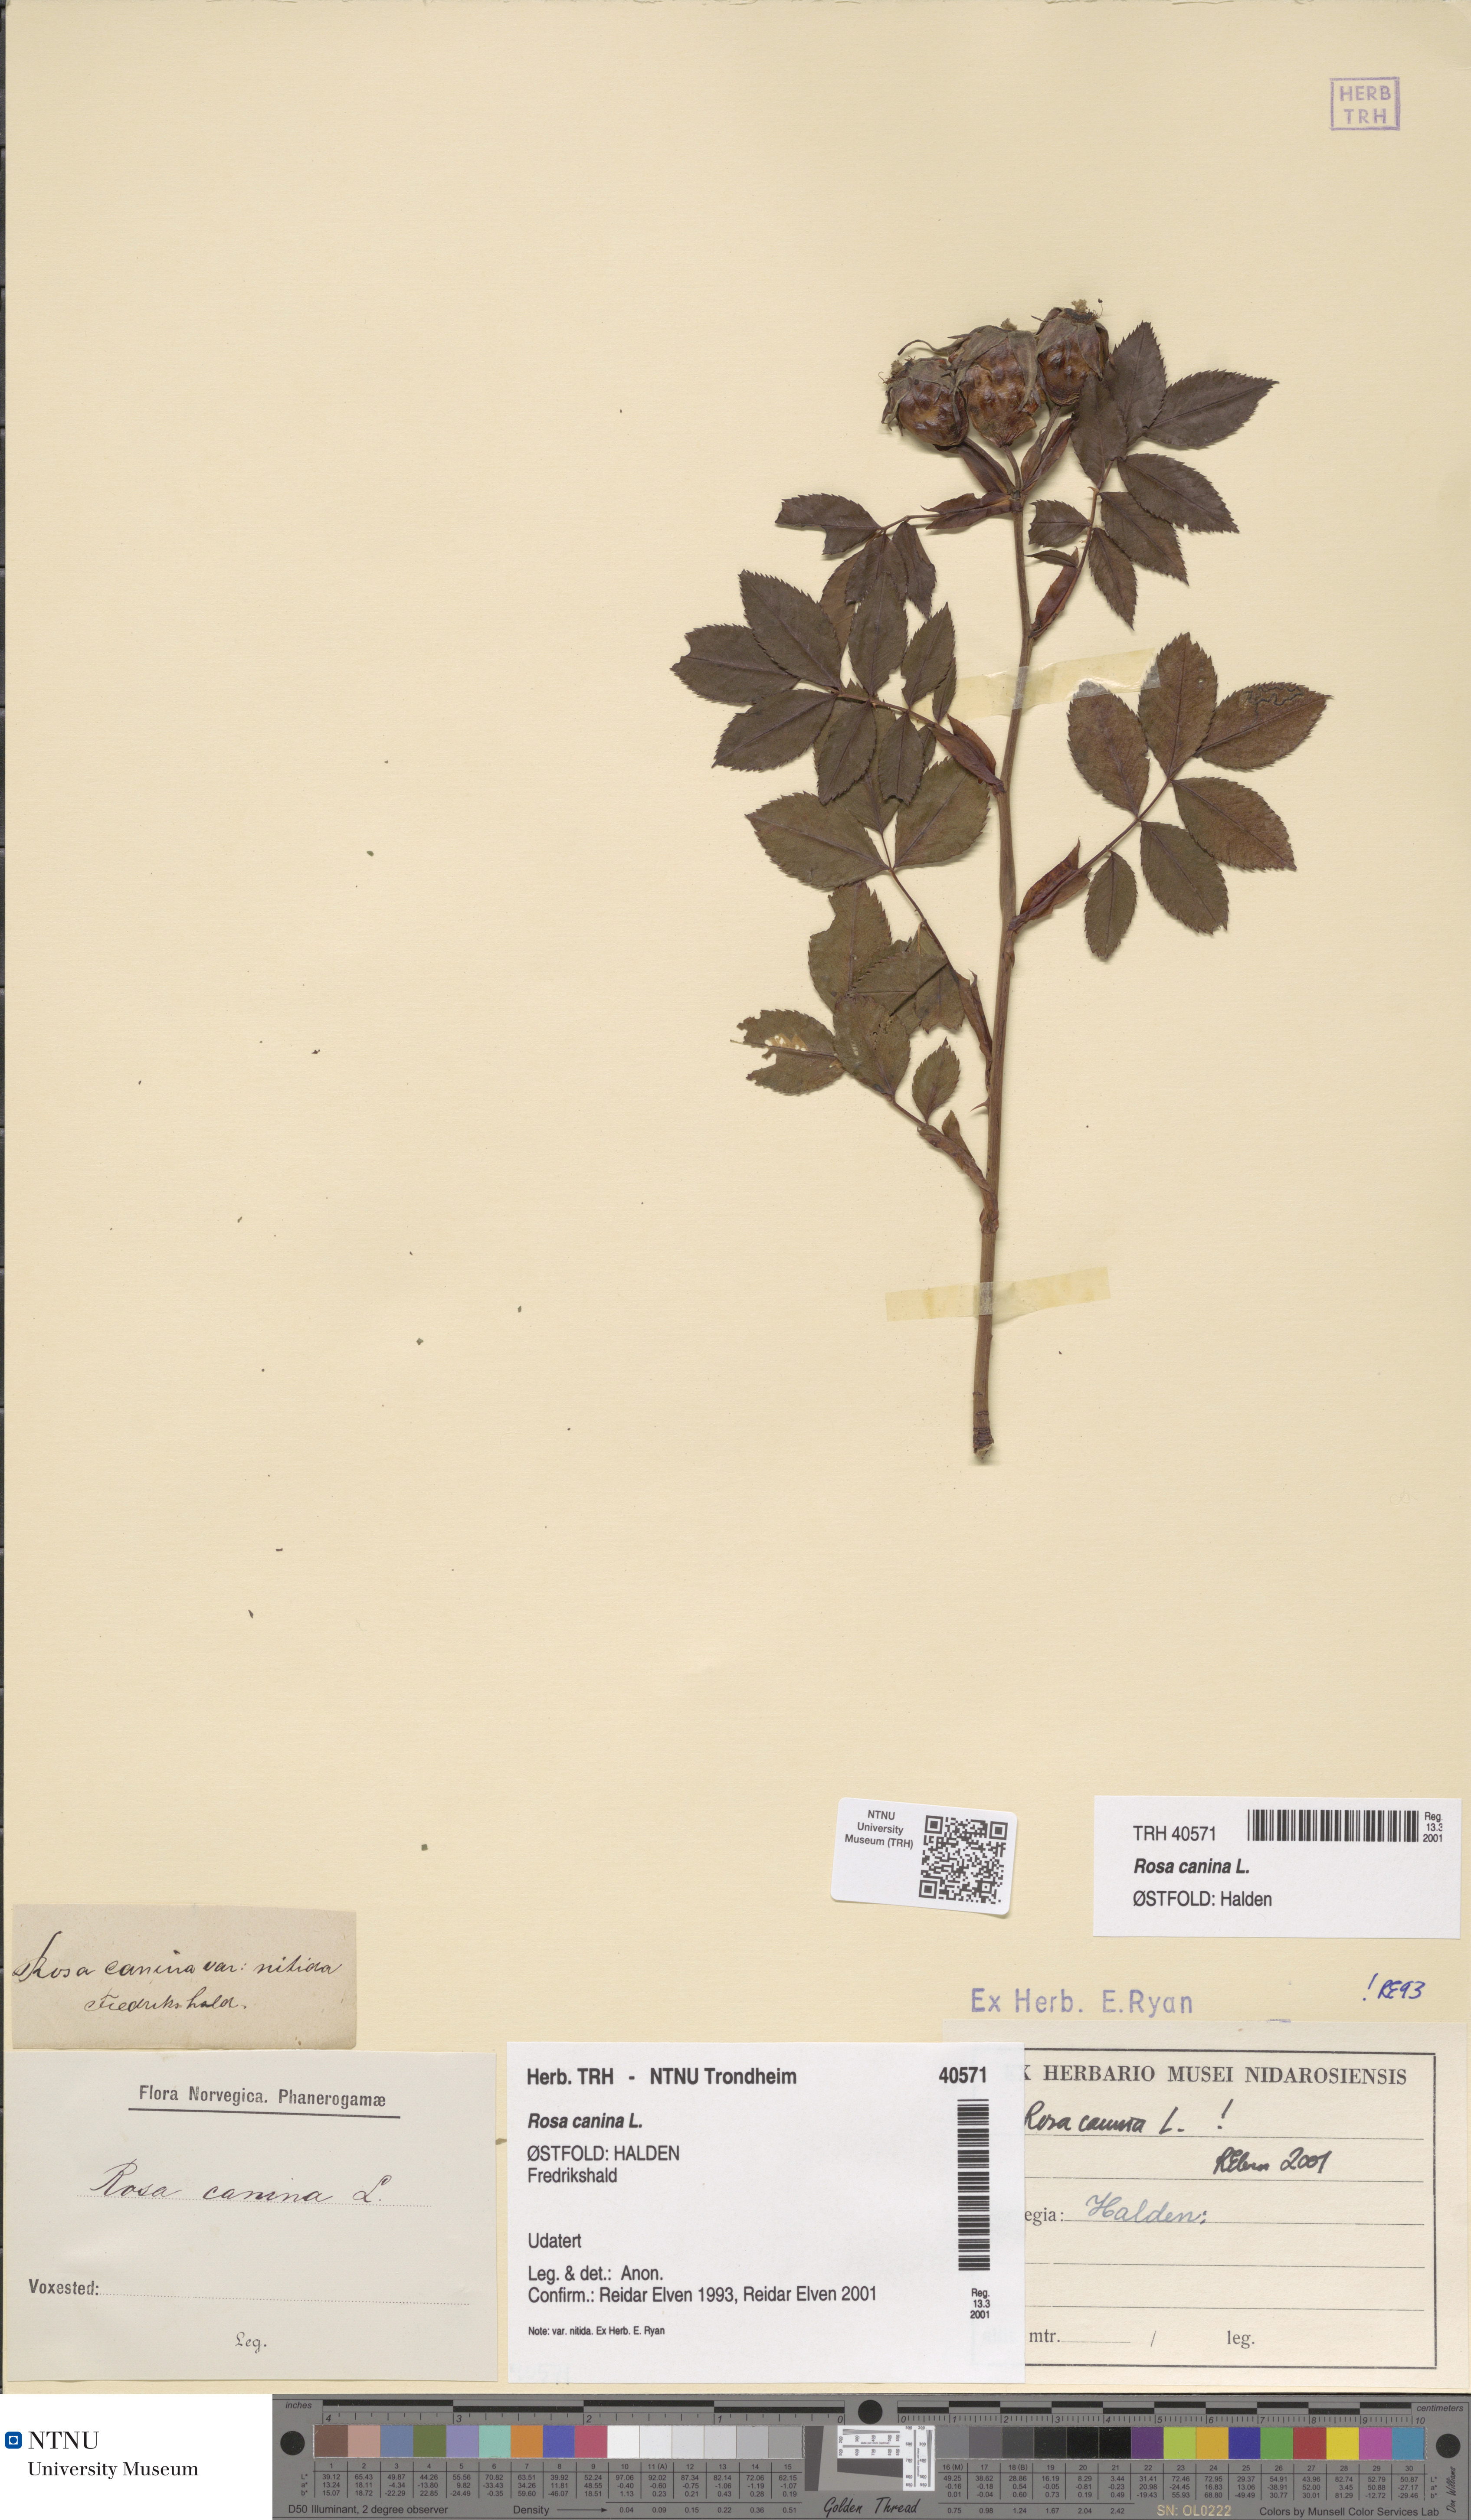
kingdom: Plantae
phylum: Tracheophyta
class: Magnoliopsida
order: Rosales
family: Rosaceae
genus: Rosa
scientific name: Rosa canina
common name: Dog rose
